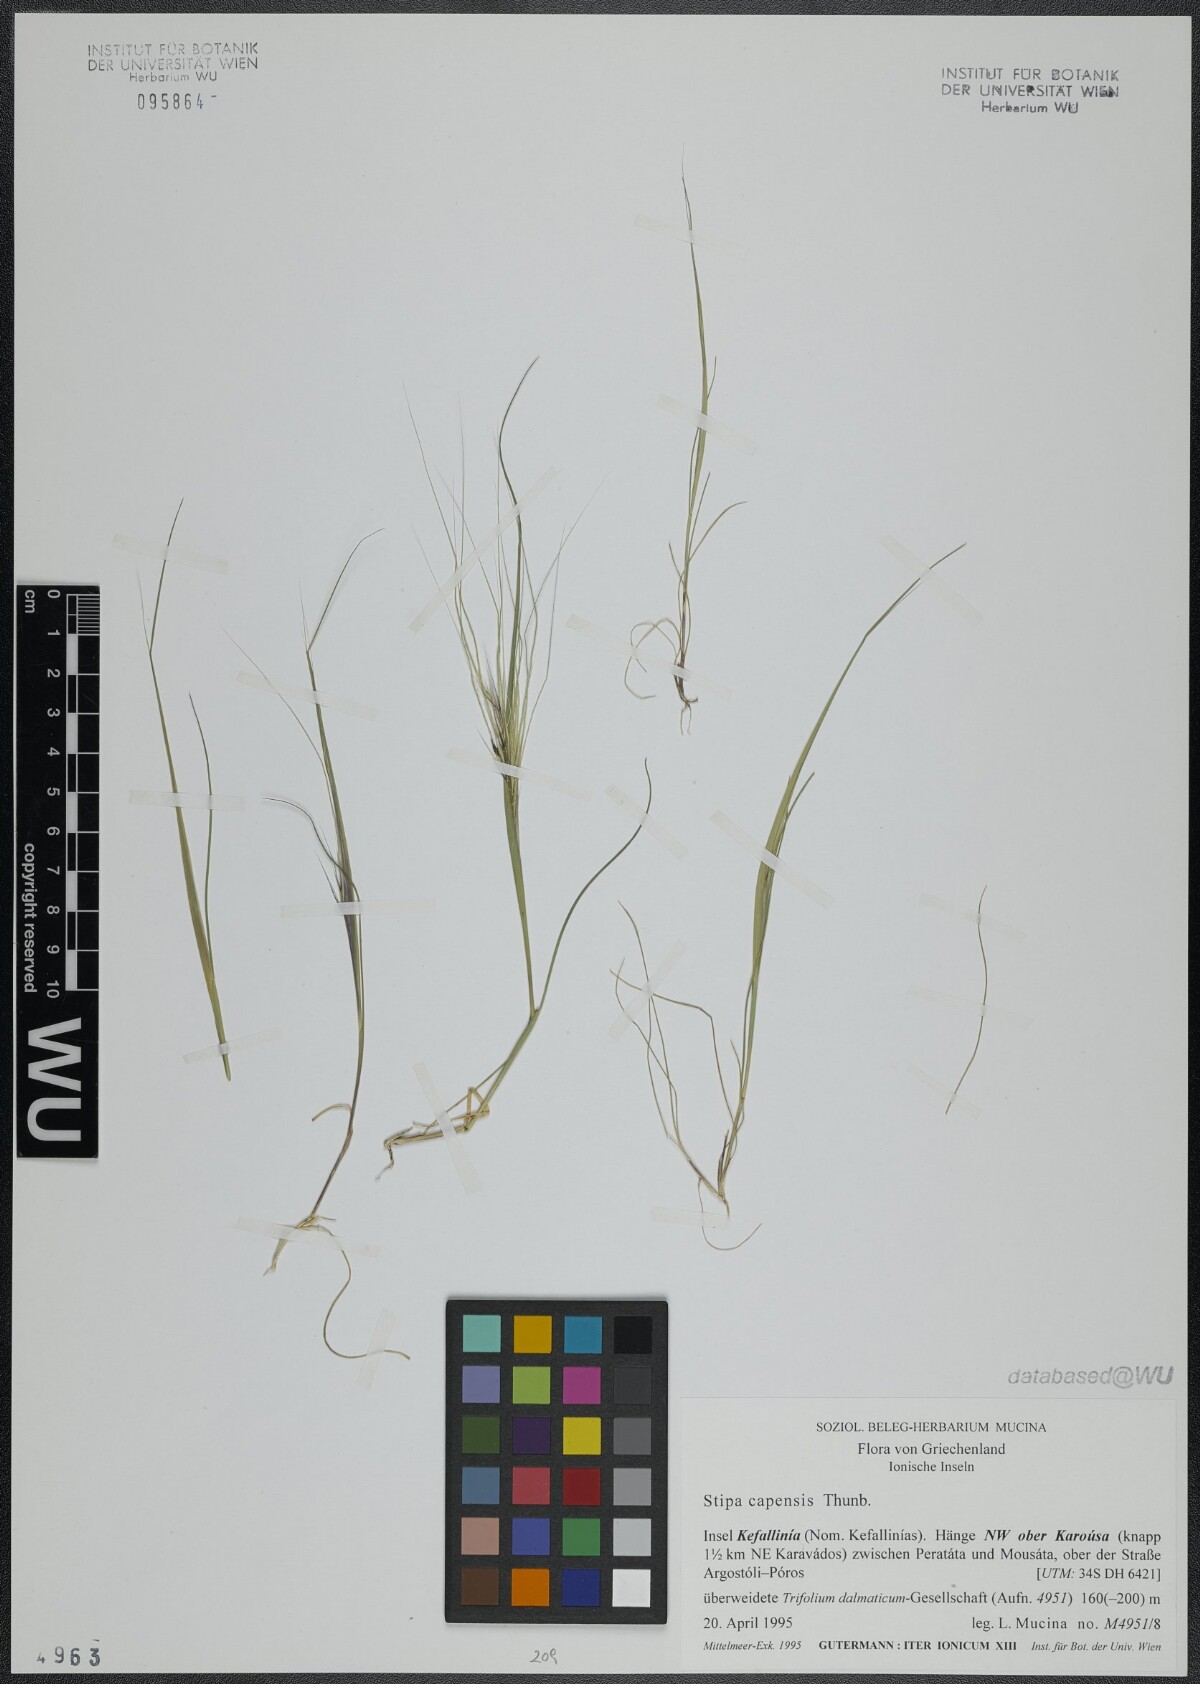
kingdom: Plantae
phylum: Tracheophyta
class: Liliopsida
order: Poales
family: Poaceae
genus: Stipellula
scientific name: Stipellula capensis
